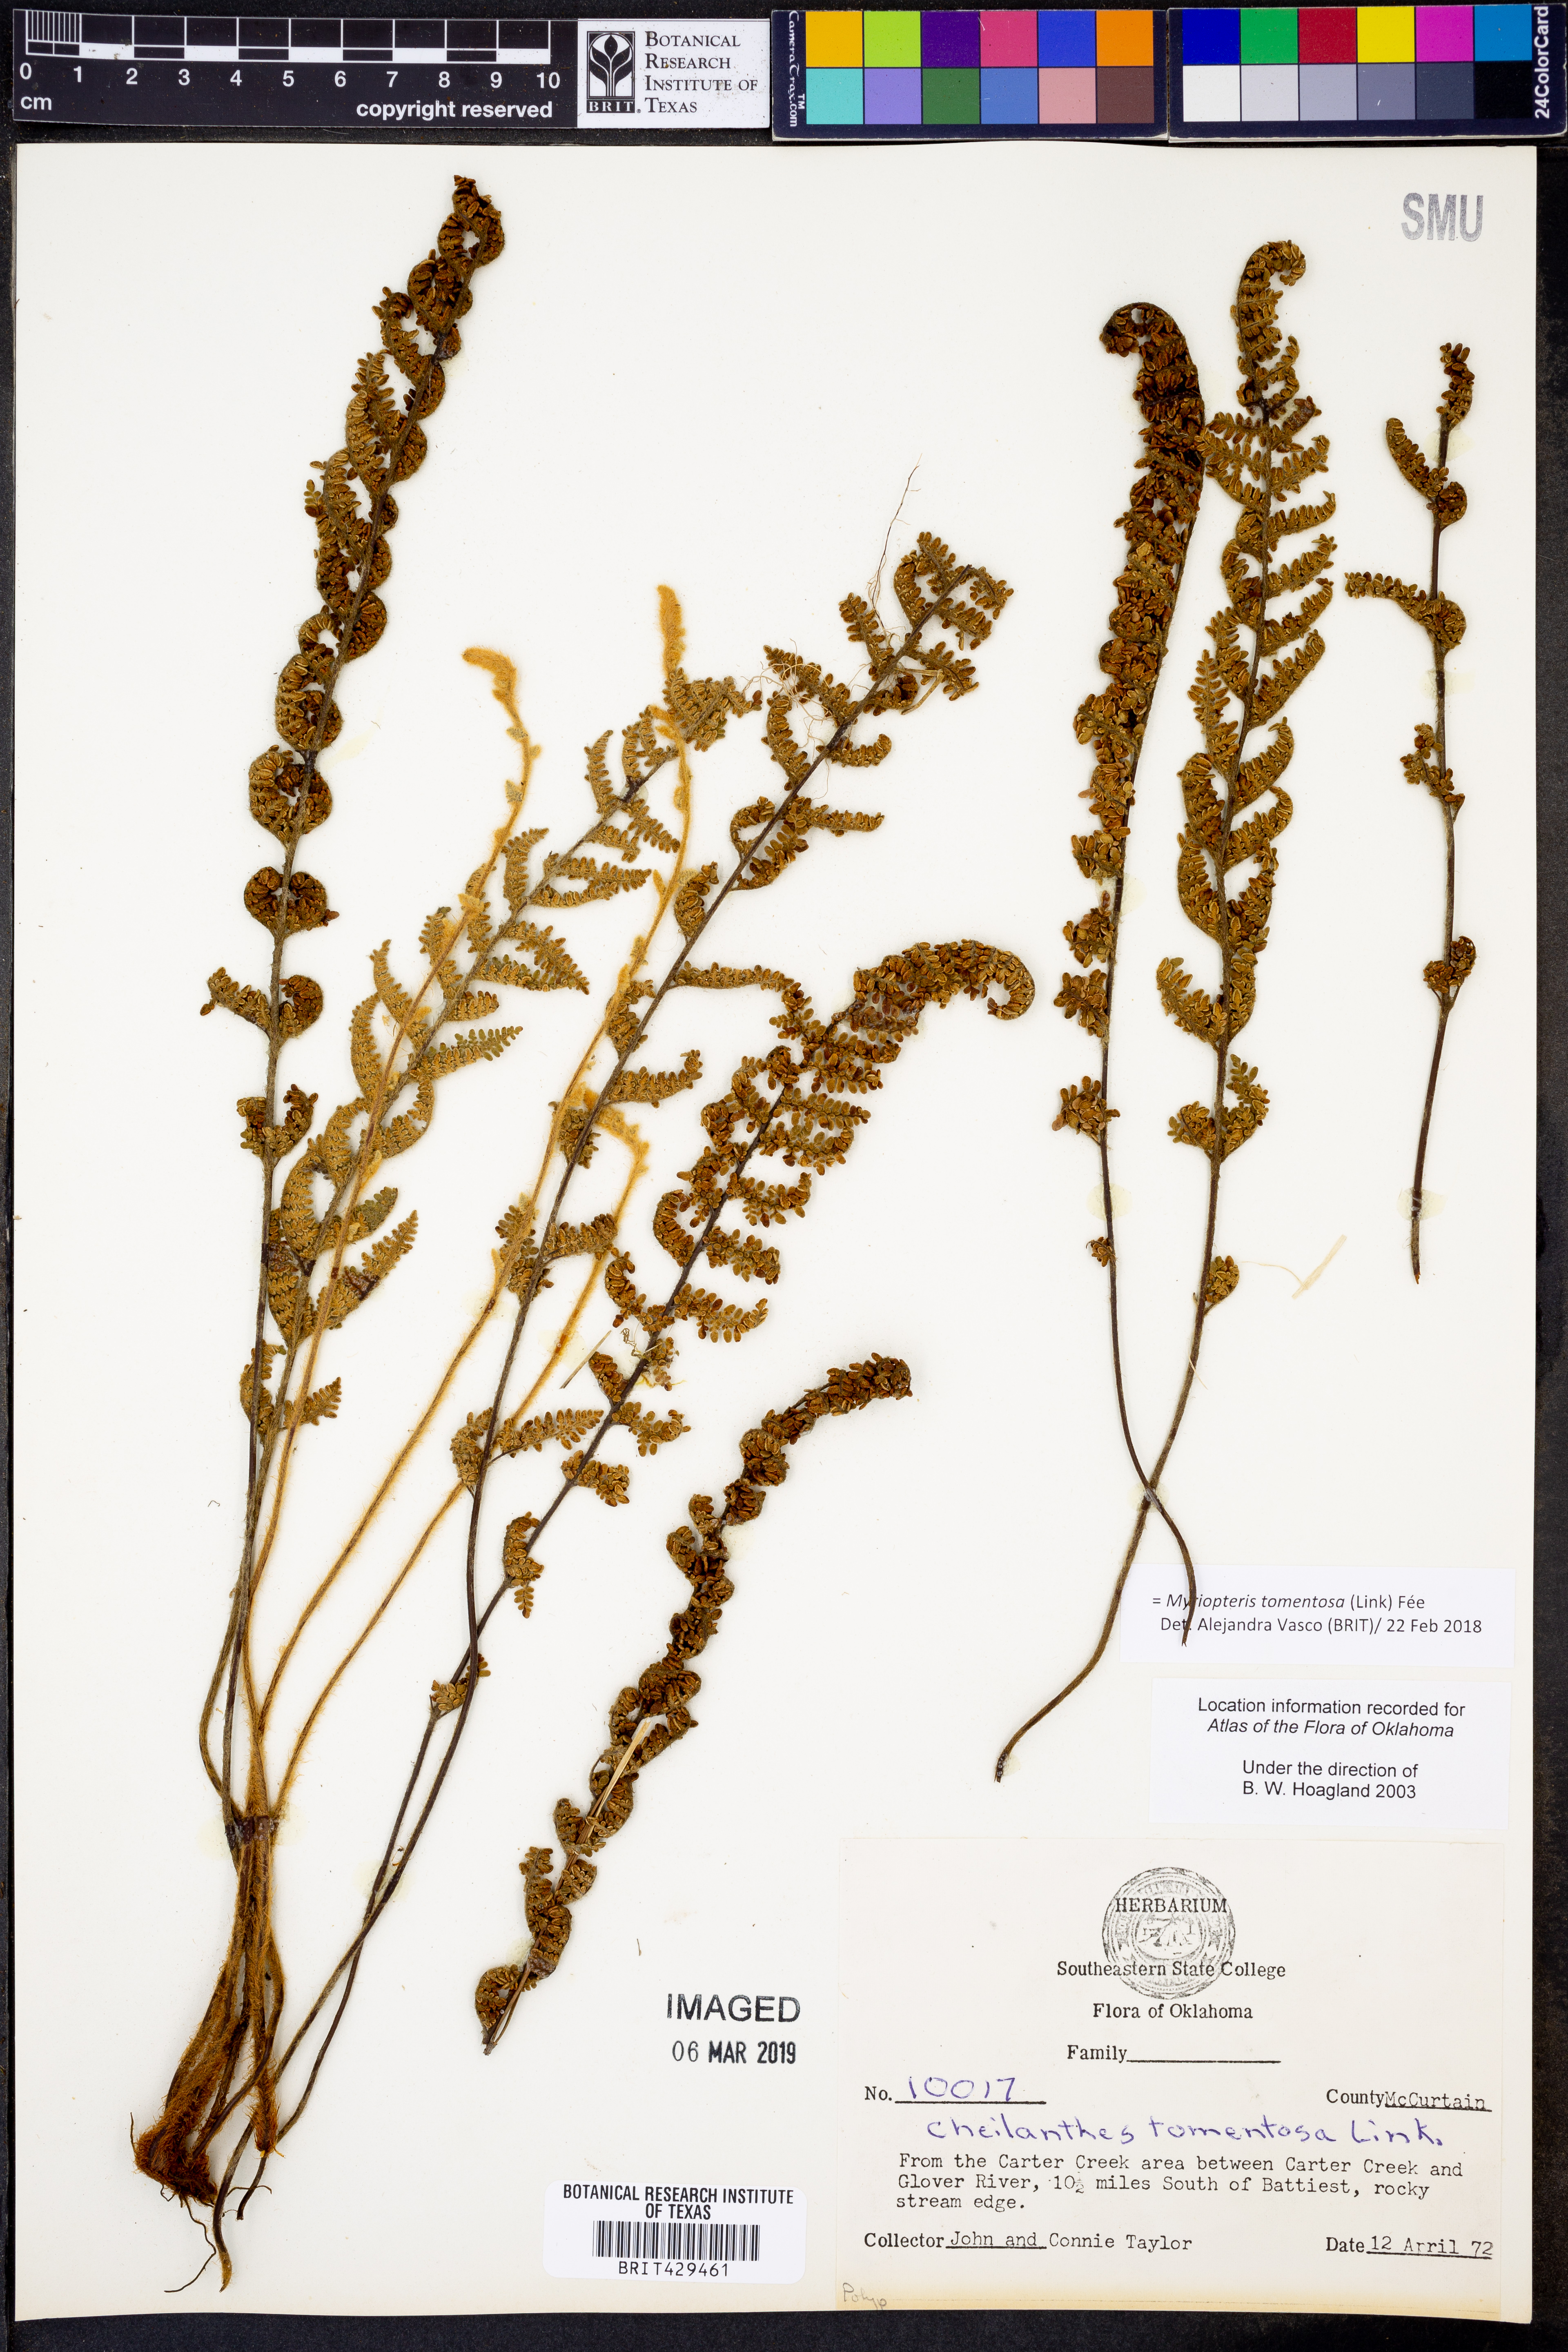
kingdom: Plantae
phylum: Tracheophyta
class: Polypodiopsida
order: Polypodiales
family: Pteridaceae
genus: Myriopteris
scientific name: Myriopteris tomentosa
